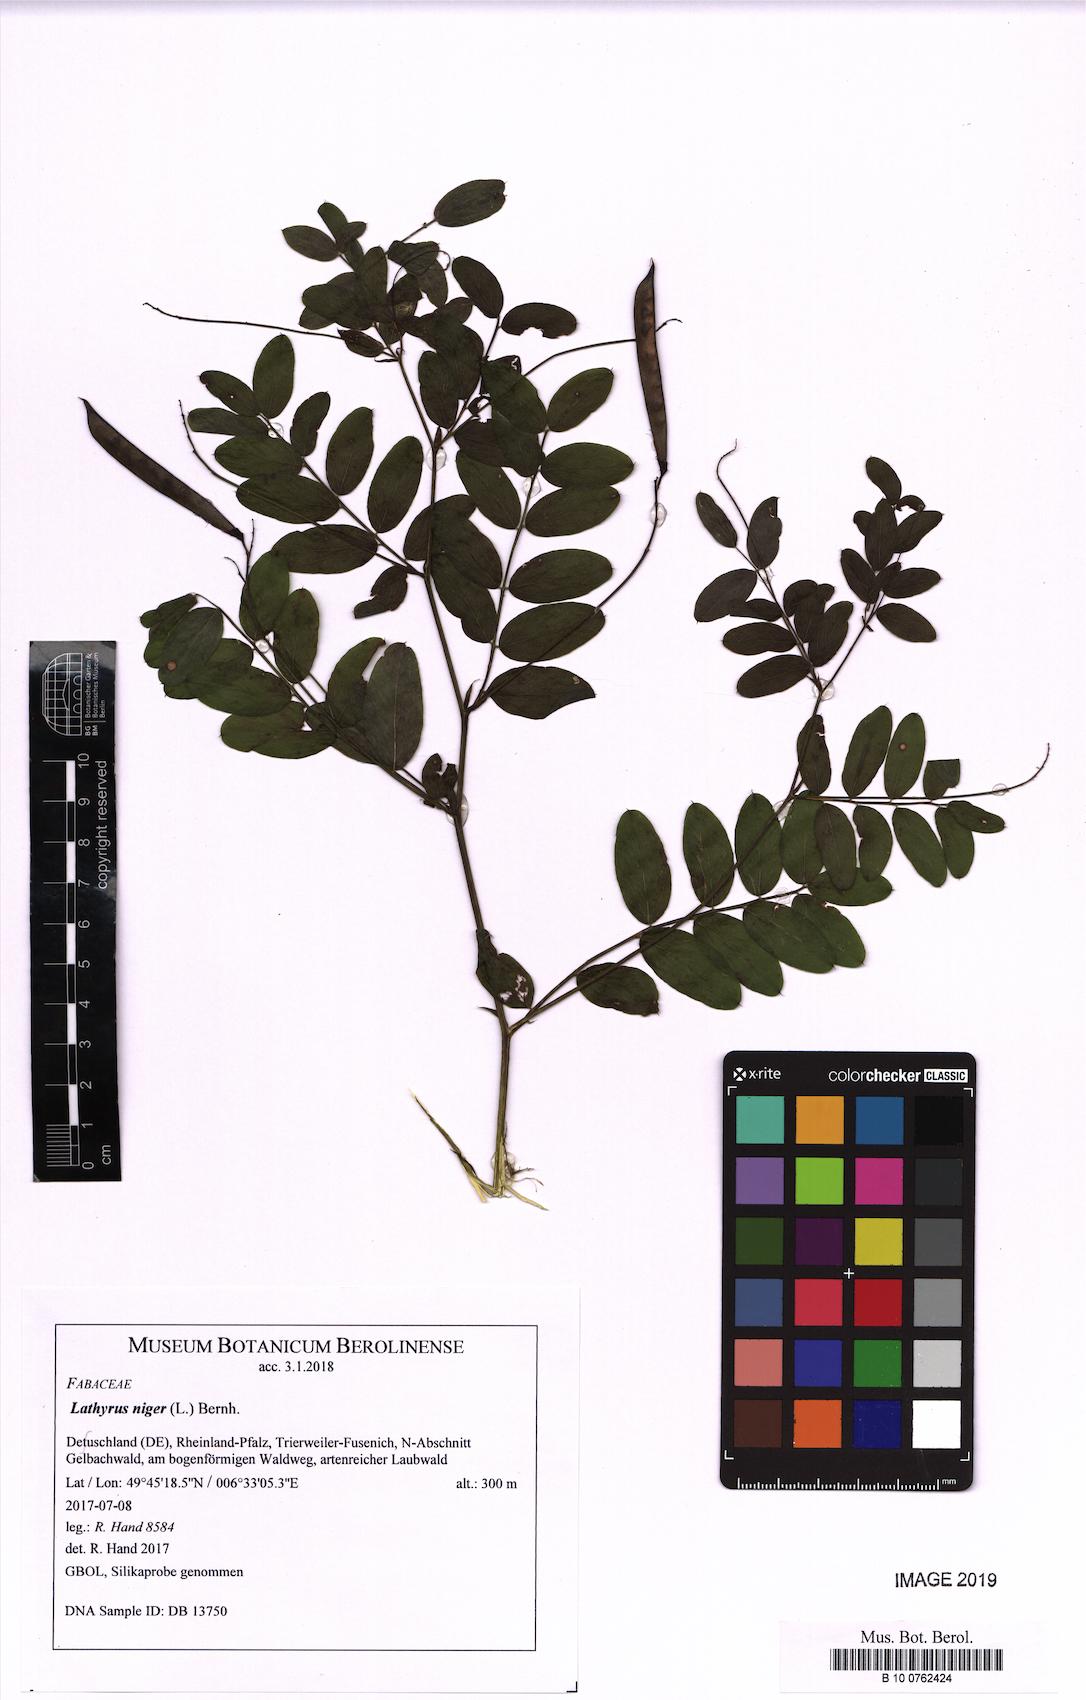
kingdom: Plantae
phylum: Tracheophyta
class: Magnoliopsida
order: Fabales
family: Fabaceae
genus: Lathyrus
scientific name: Lathyrus niger
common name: Black pea
